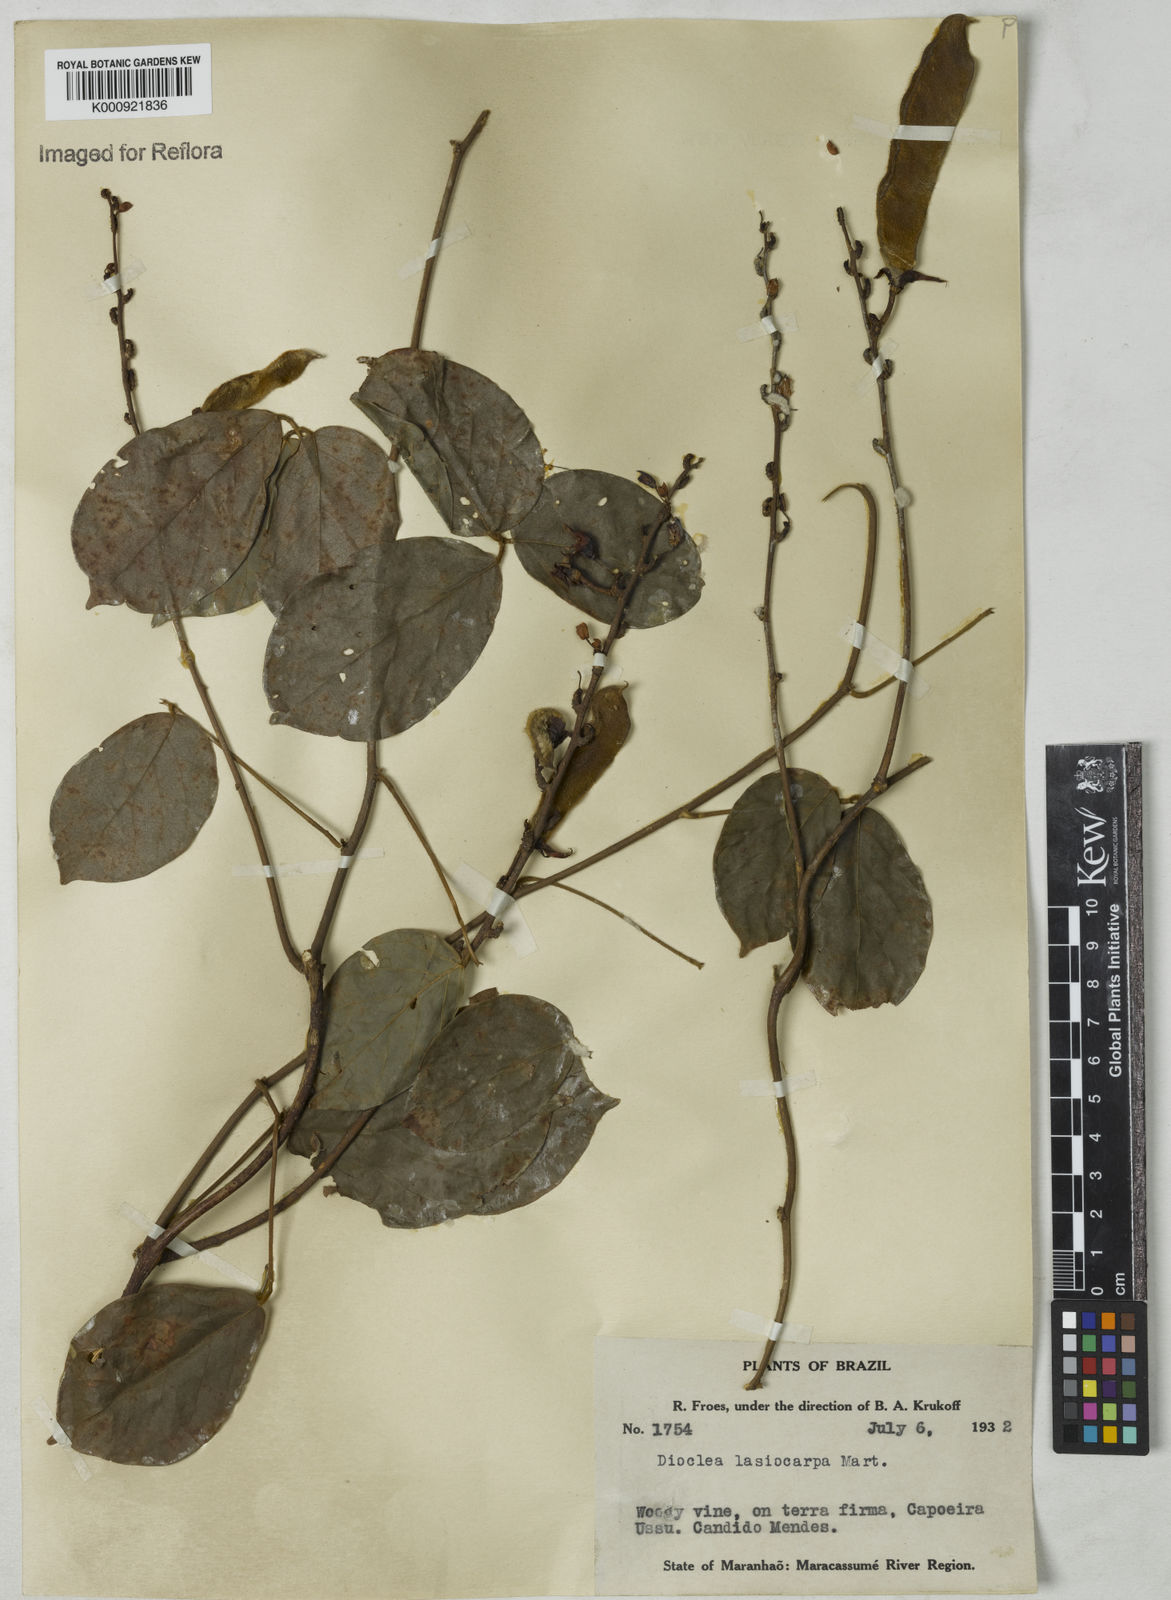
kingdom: Plantae
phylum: Tracheophyta
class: Magnoliopsida
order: Fabales
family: Fabaceae
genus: Dioclea
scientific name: Dioclea virgata
